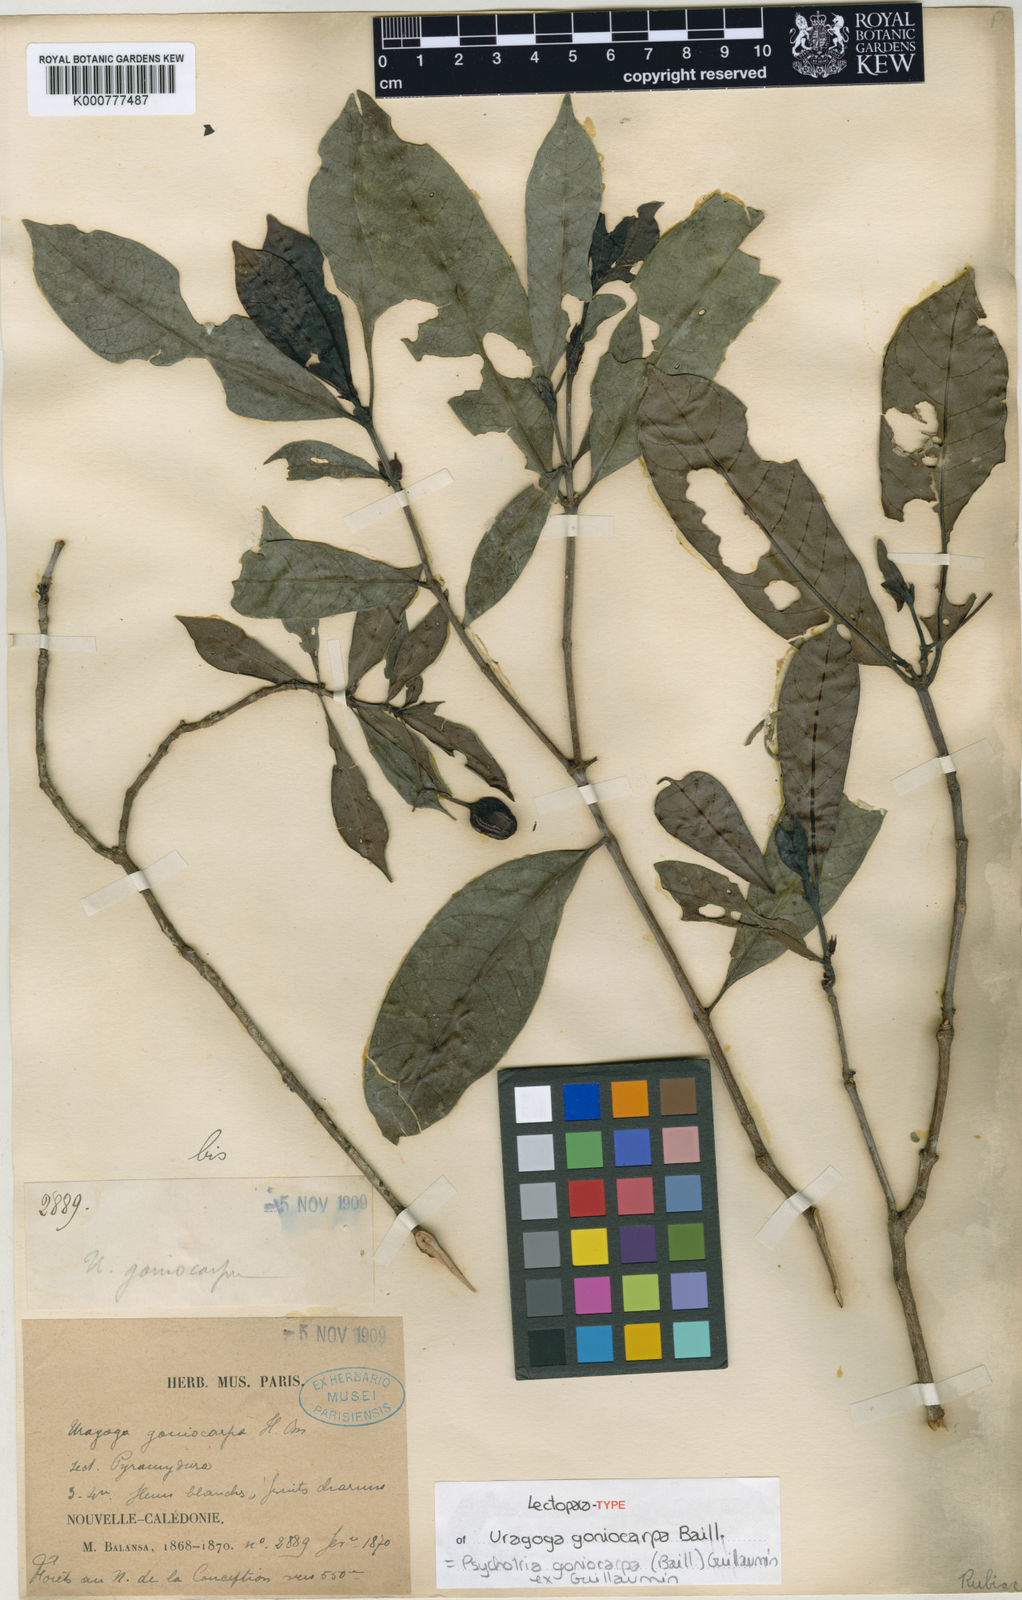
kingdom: Plantae
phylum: Tracheophyta
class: Magnoliopsida
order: Gentianales
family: Rubiaceae
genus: Psychotria
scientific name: Psychotria goniocarpa
